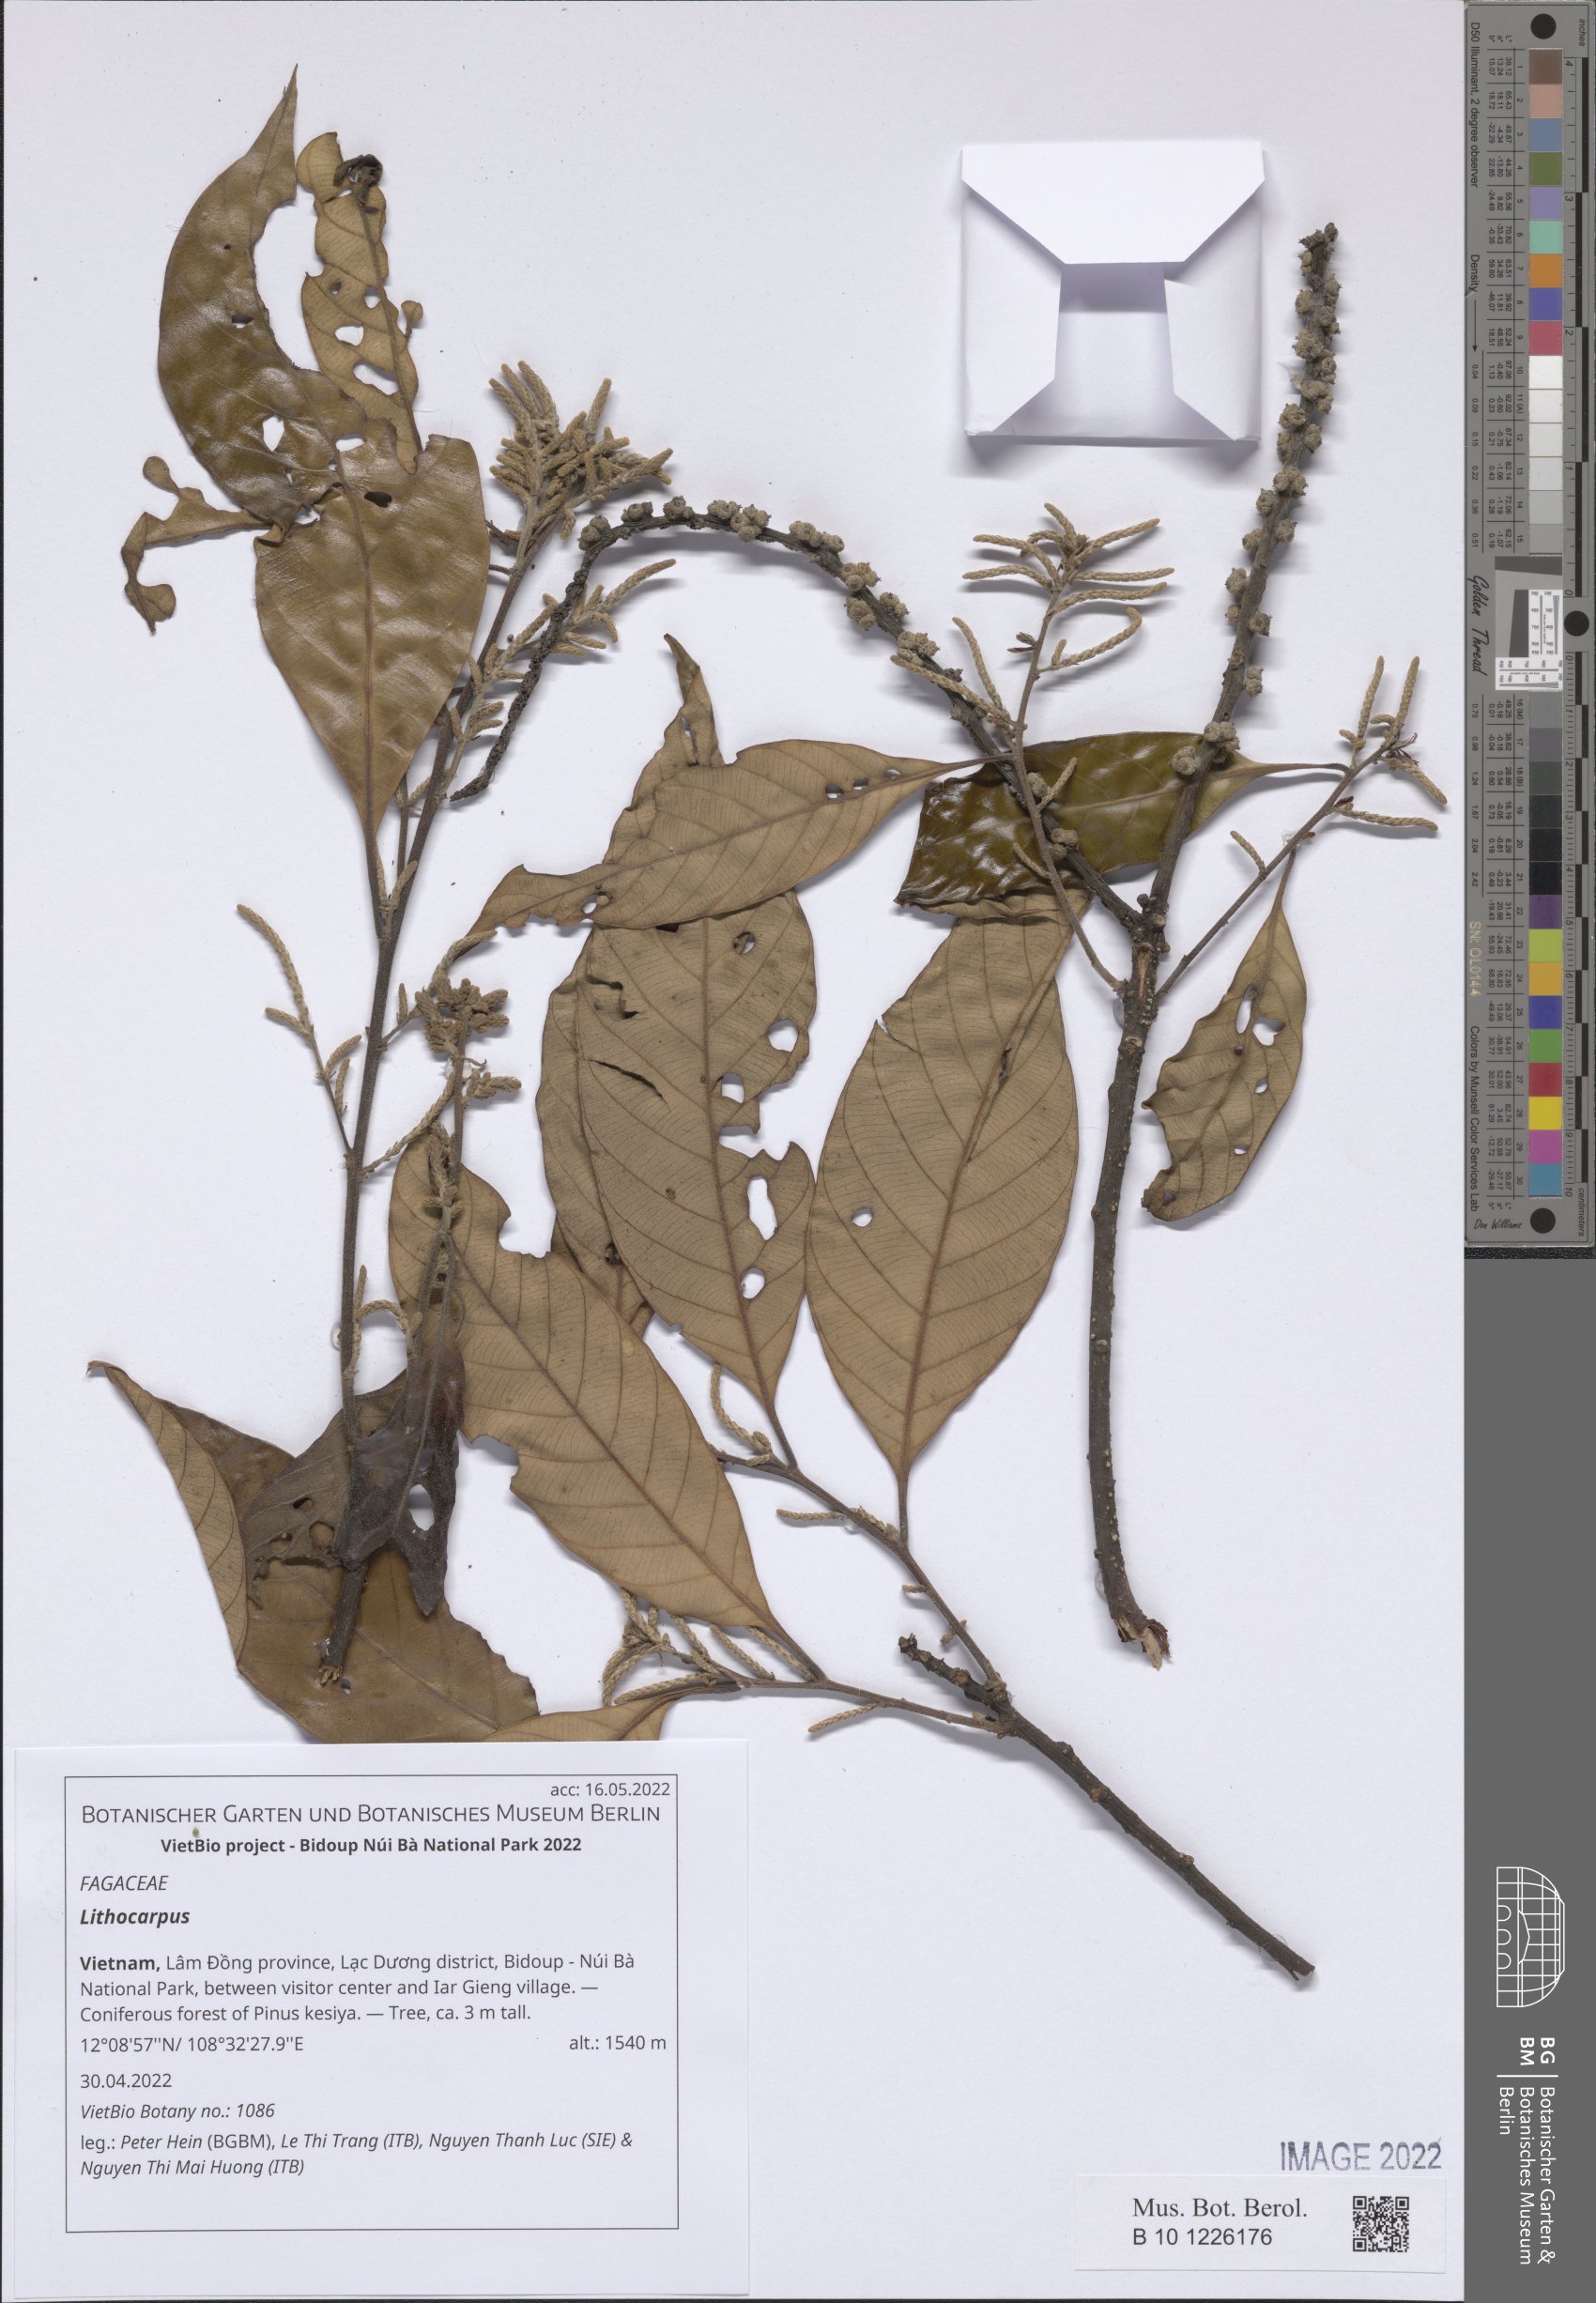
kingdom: Plantae
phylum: Tracheophyta
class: Magnoliopsida
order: Fagales
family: Fagaceae
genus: Lithocarpus
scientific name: Lithocarpus
